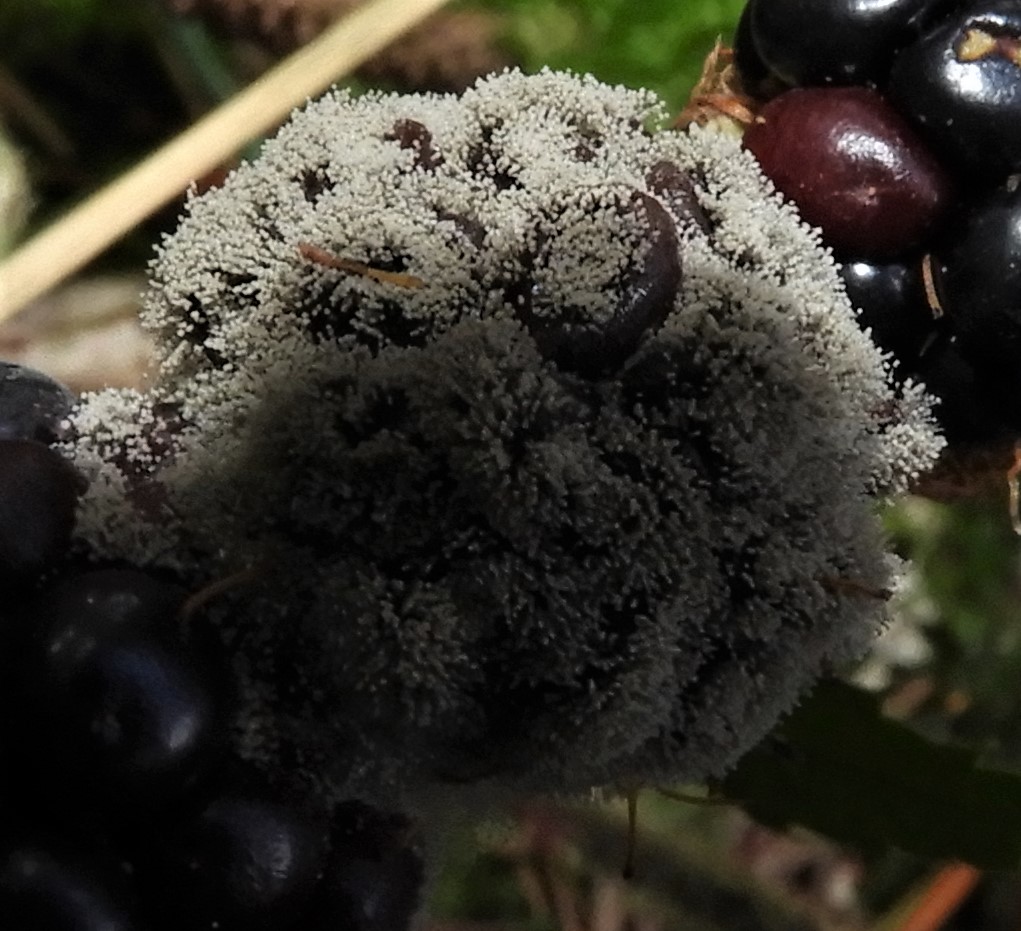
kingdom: Fungi
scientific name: Fungi
